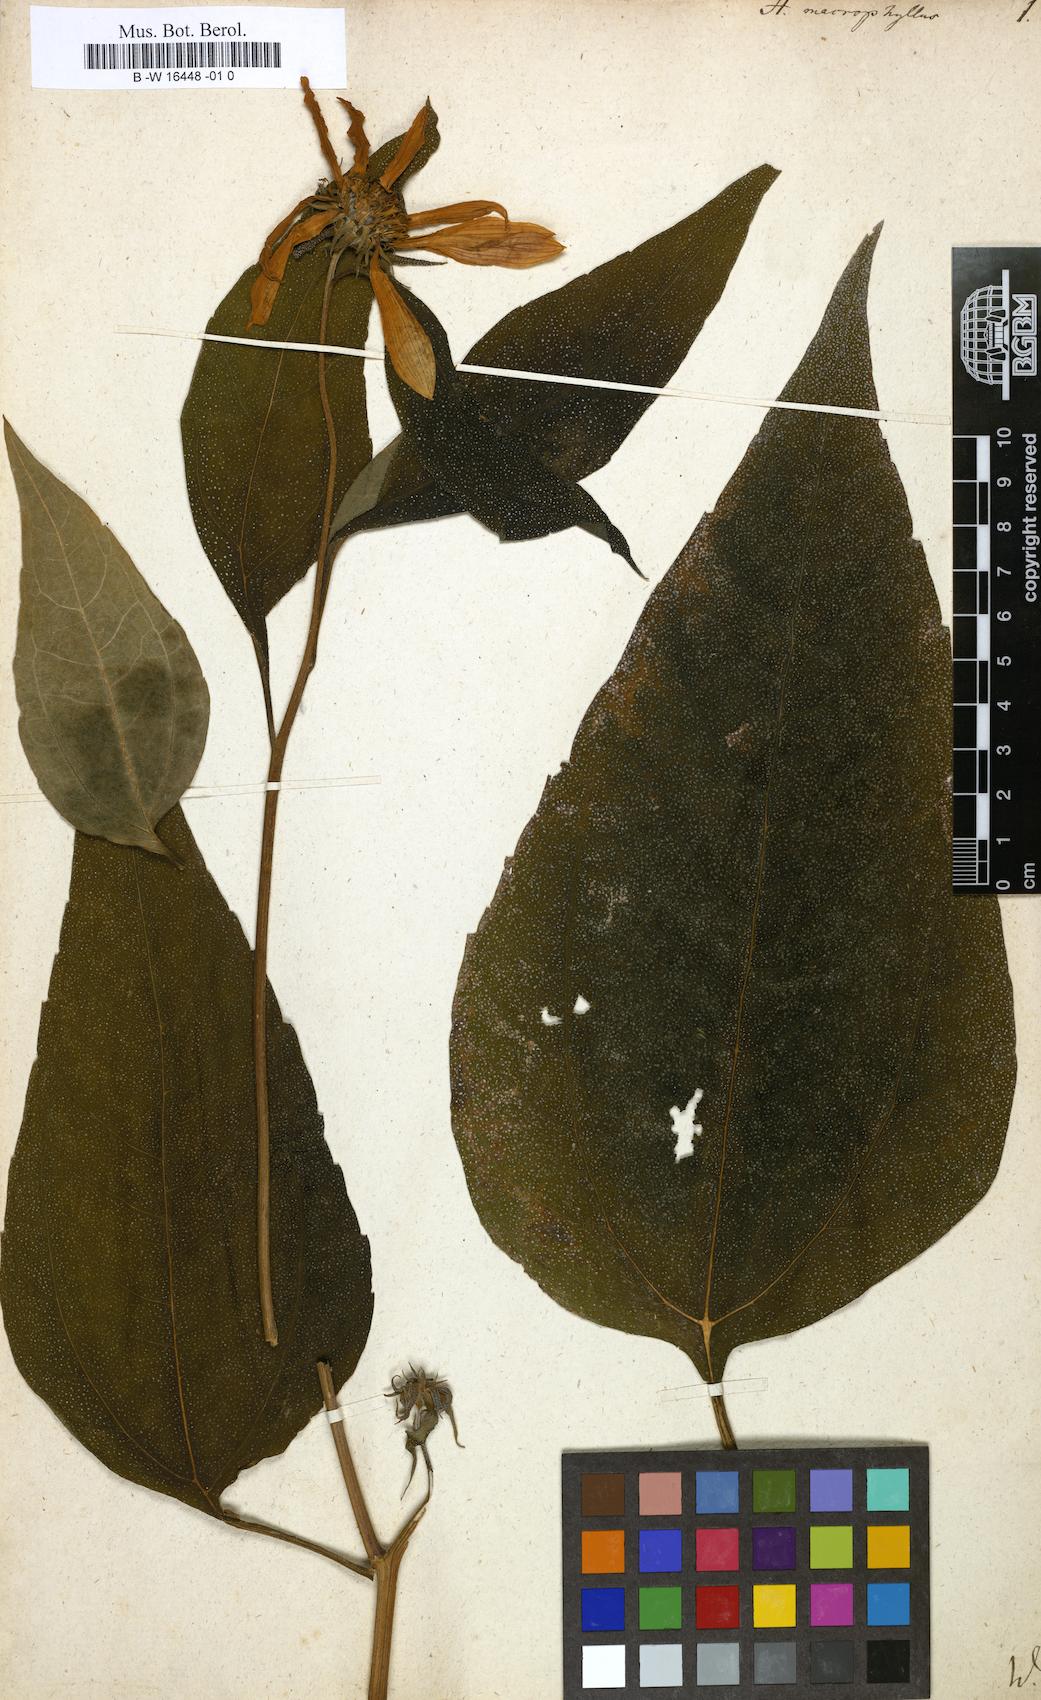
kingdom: Plantae
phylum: Tracheophyta
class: Magnoliopsida
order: Asterales
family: Asteraceae
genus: Helianthus
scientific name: Helianthus strumosus
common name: Pale-leaved sunflower
